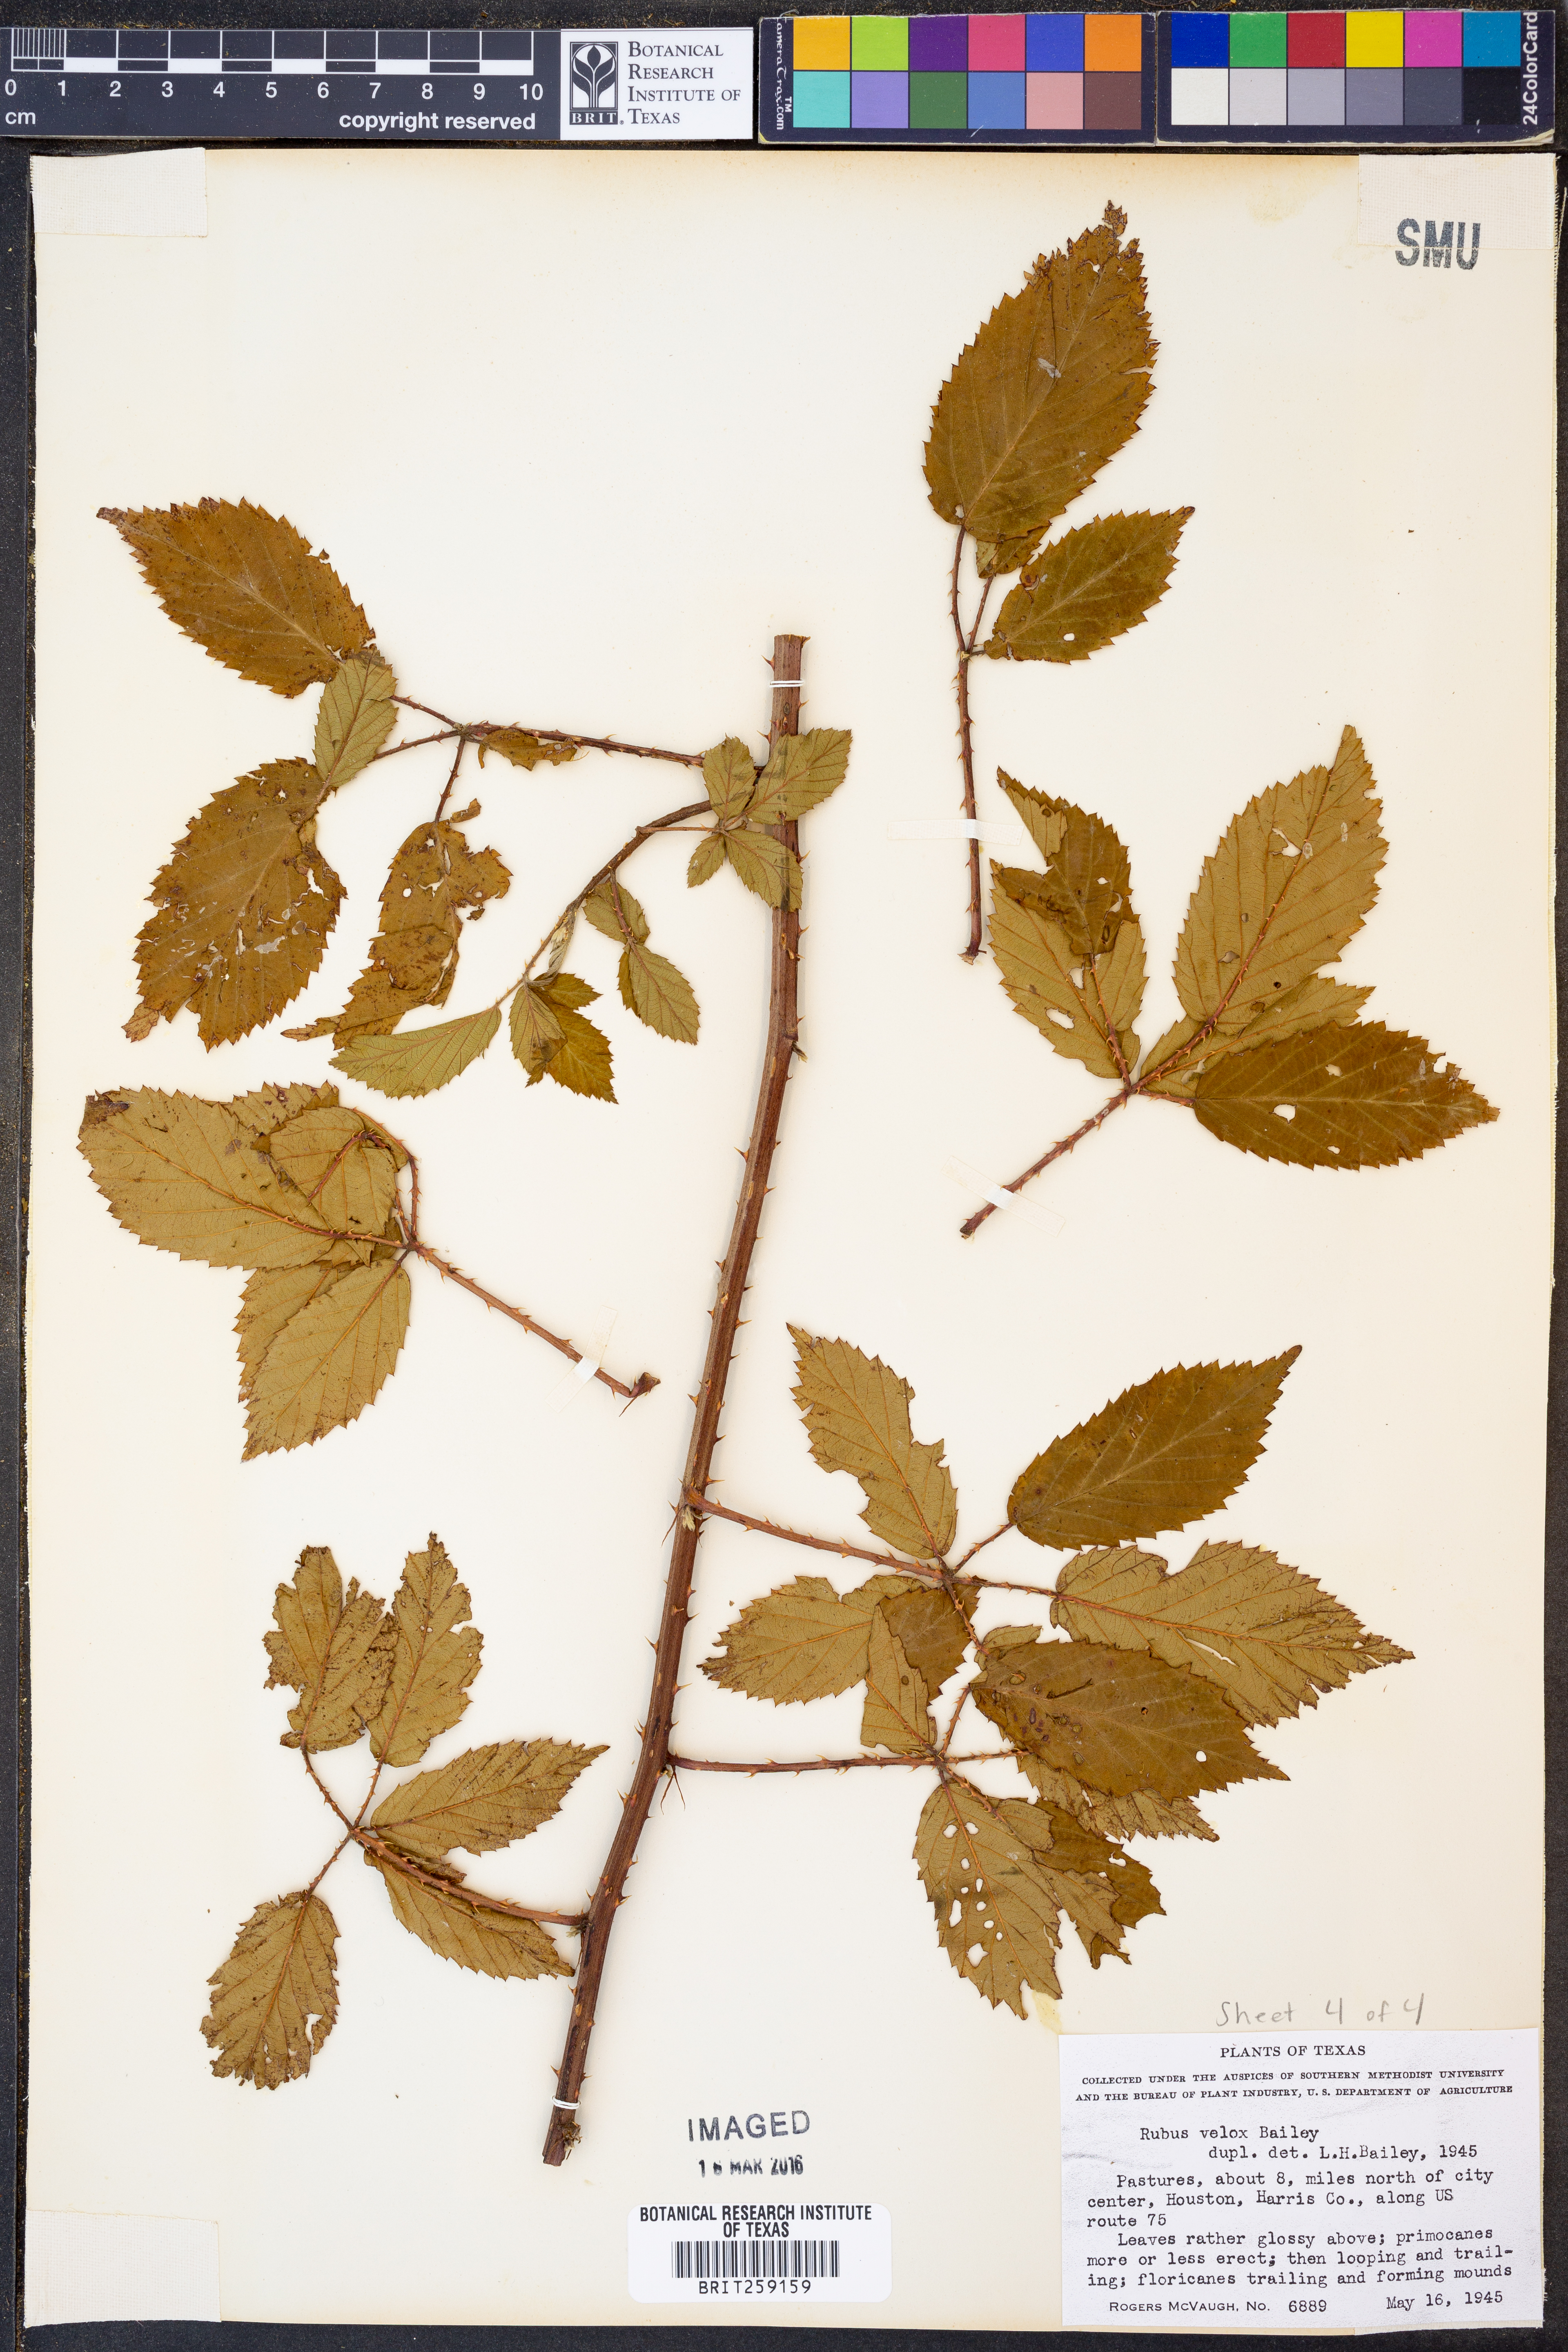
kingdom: Plantae
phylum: Tracheophyta
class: Magnoliopsida
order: Rosales
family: Rosaceae
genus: Rubus
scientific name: Rubus velox
